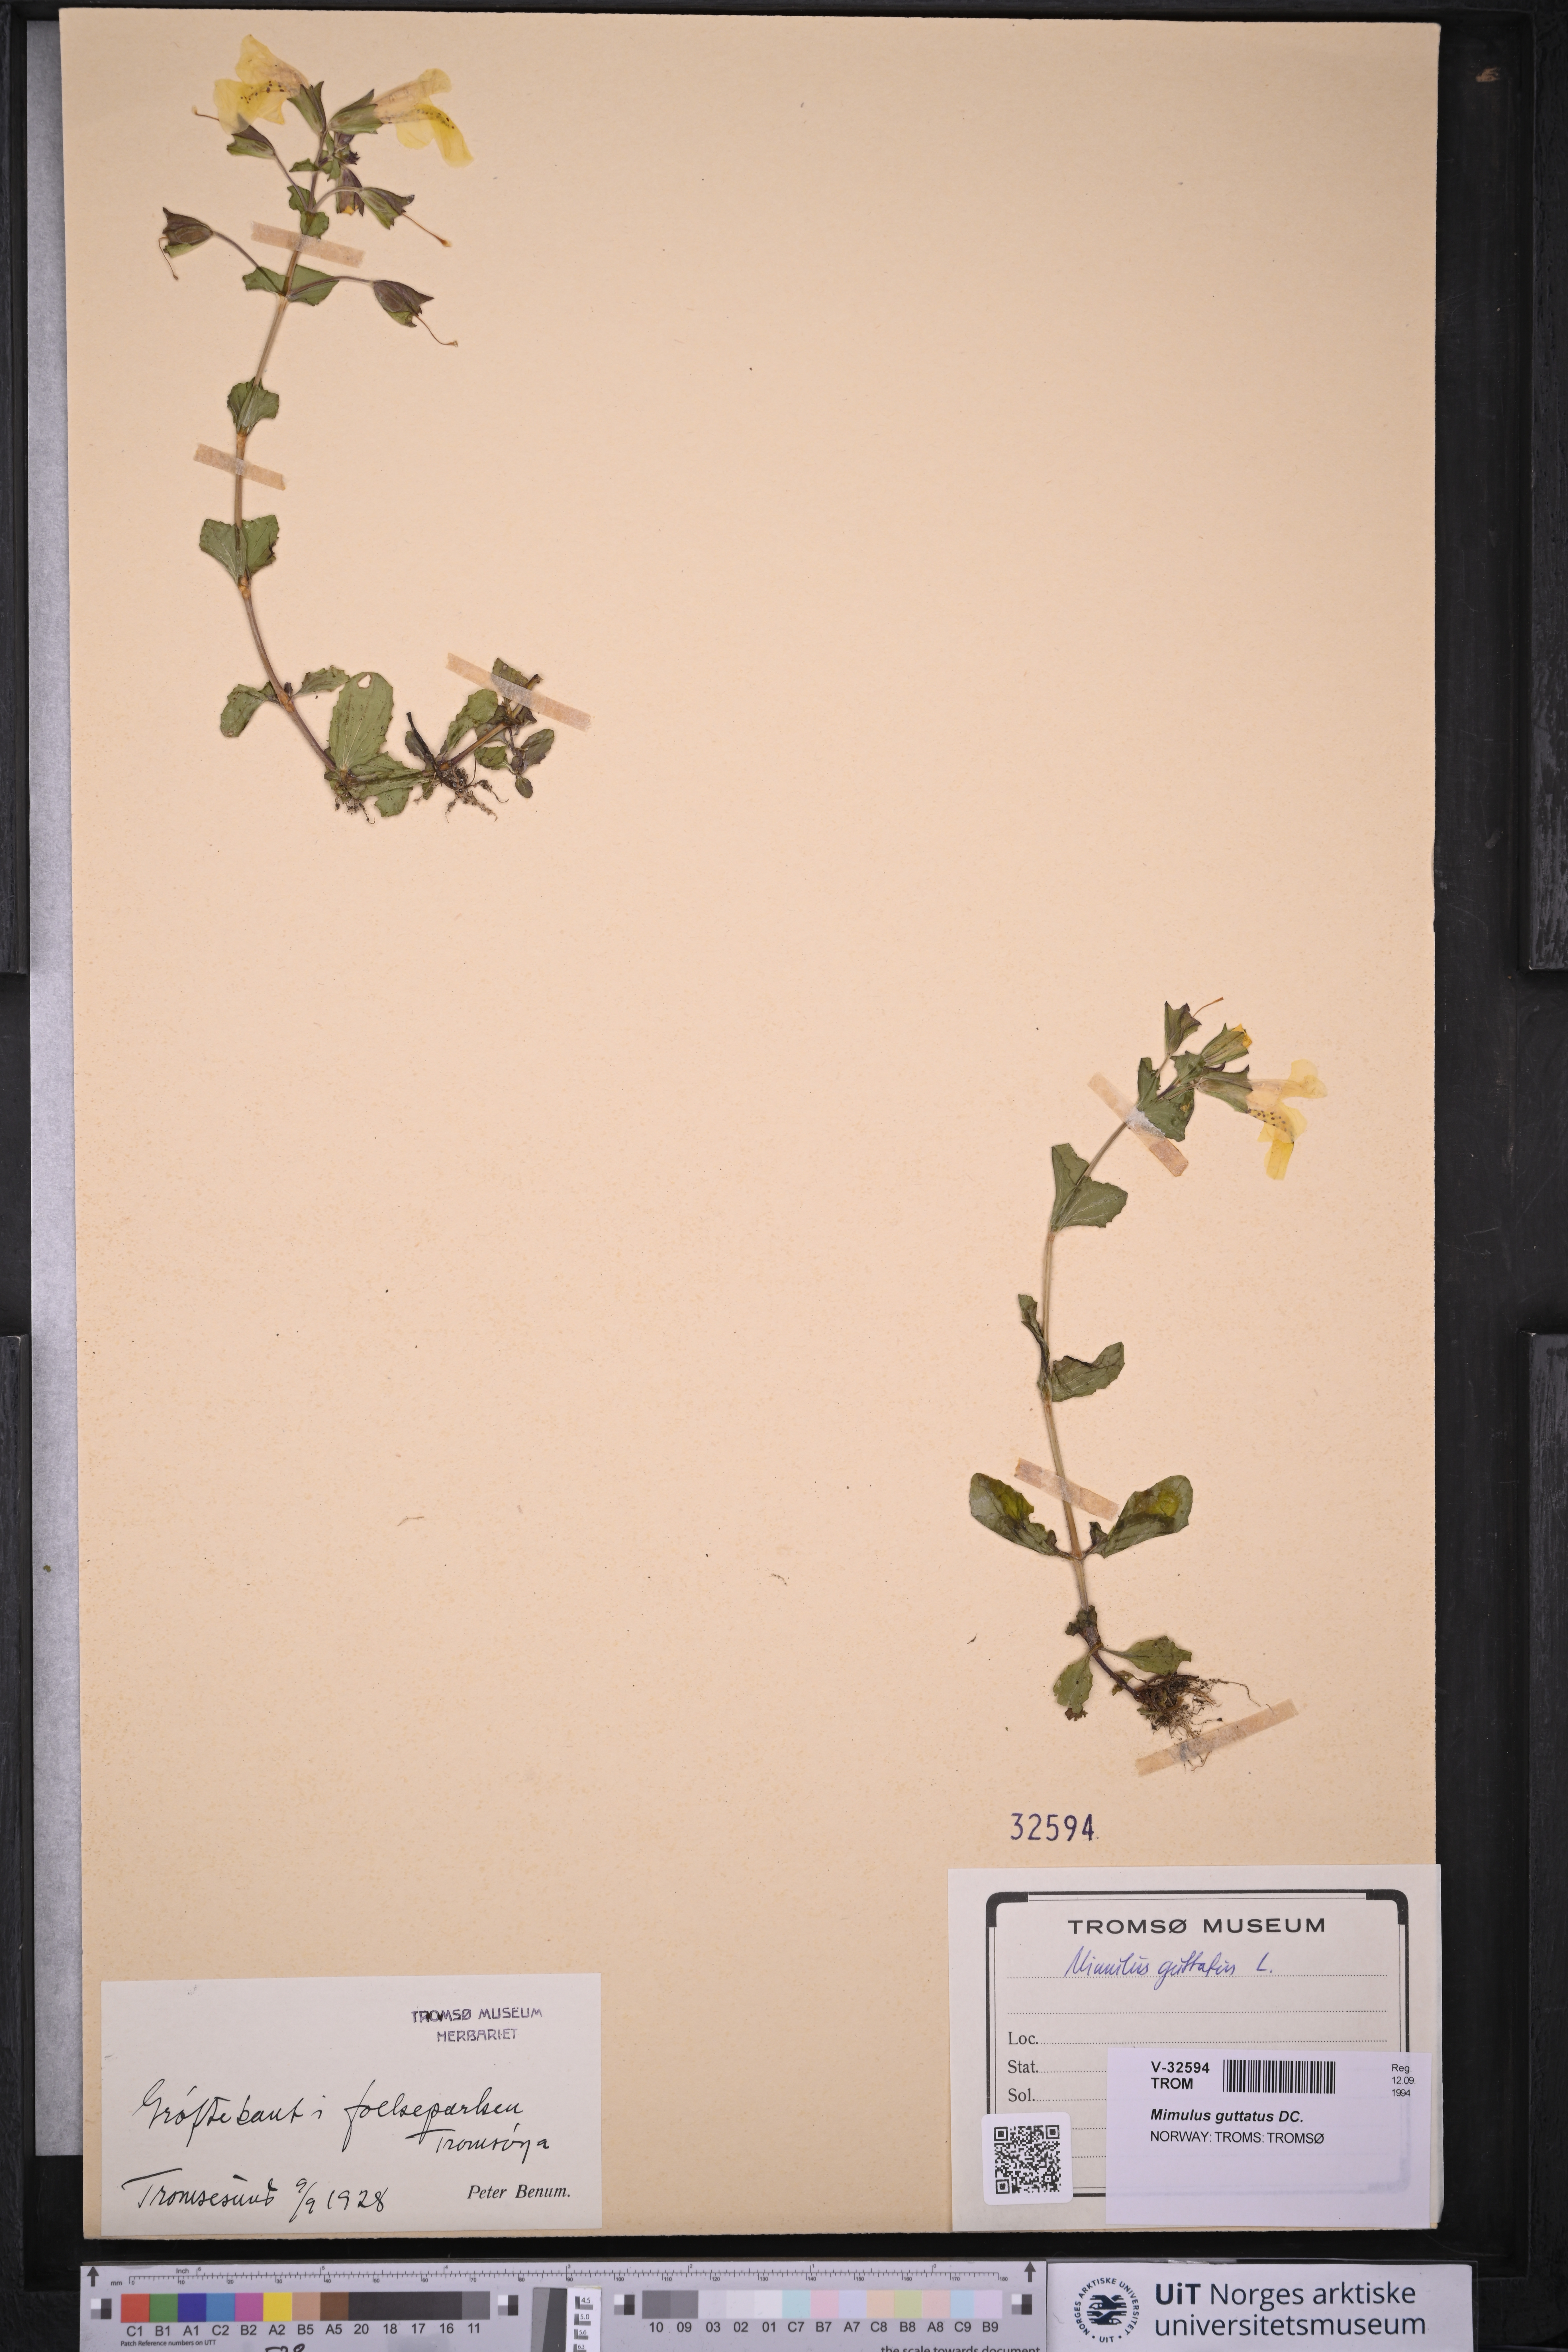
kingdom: Plantae
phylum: Tracheophyta
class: Magnoliopsida
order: Lamiales
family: Phrymaceae
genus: Erythranthe
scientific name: Erythranthe guttata
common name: Monkeyflower
